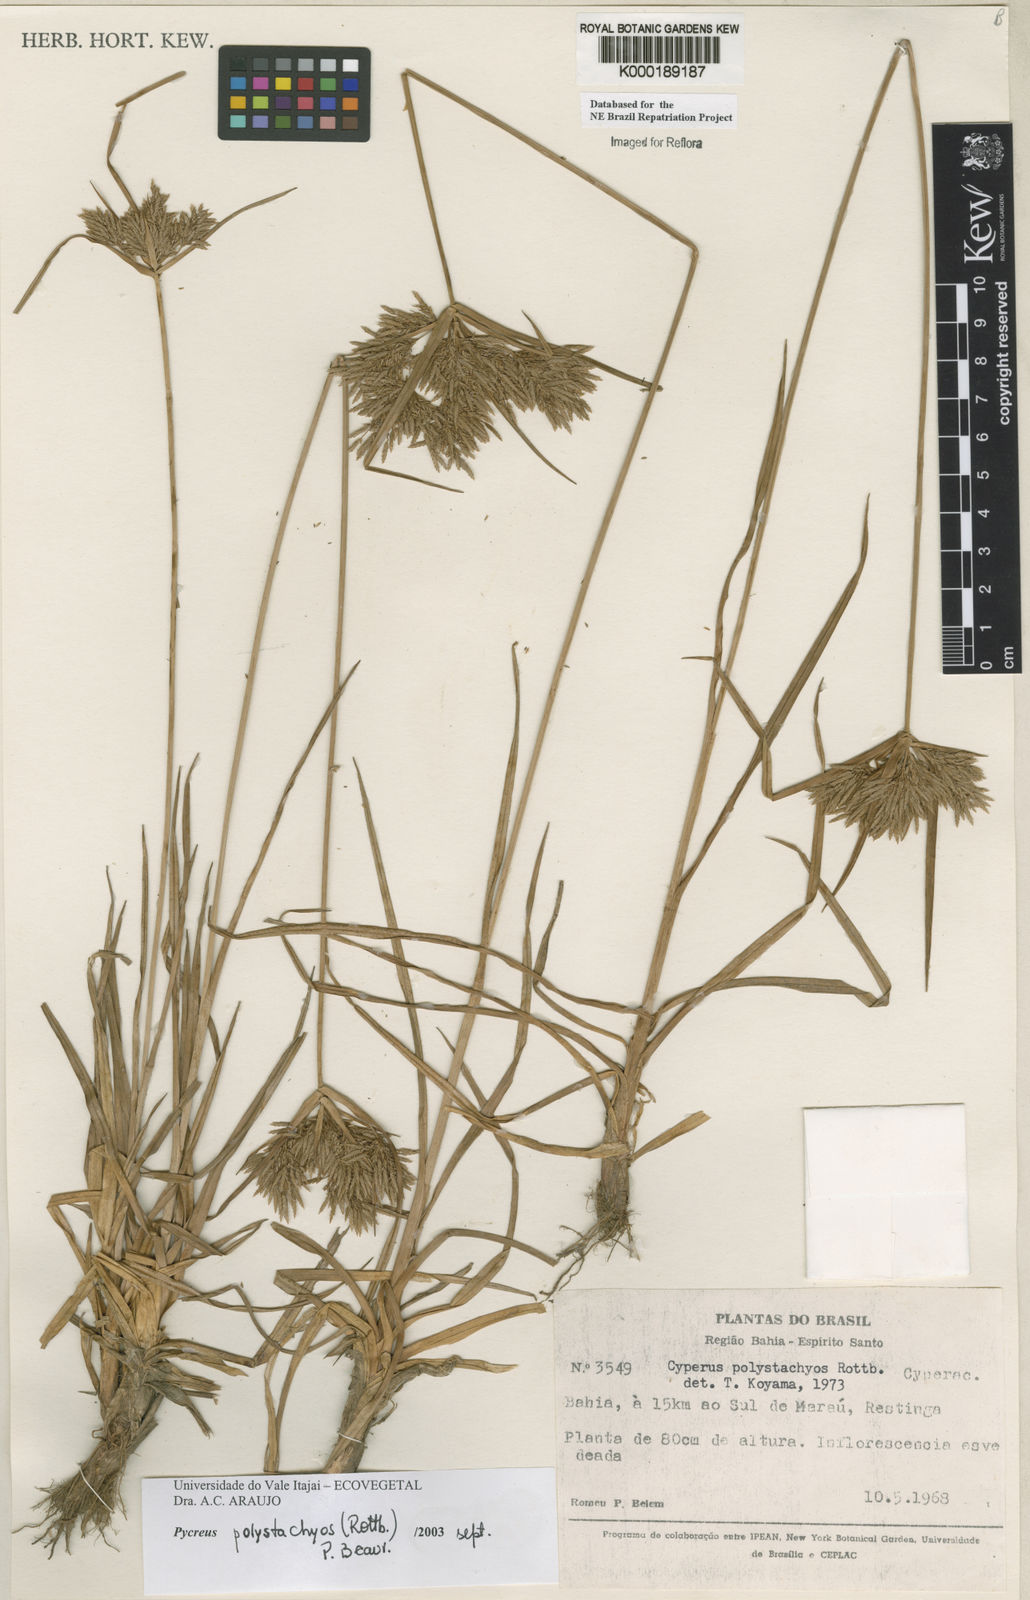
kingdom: Plantae
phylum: Tracheophyta
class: Liliopsida
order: Poales
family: Cyperaceae
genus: Cyperus
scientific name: Cyperus polystachyos
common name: Bunchy flat sedge
